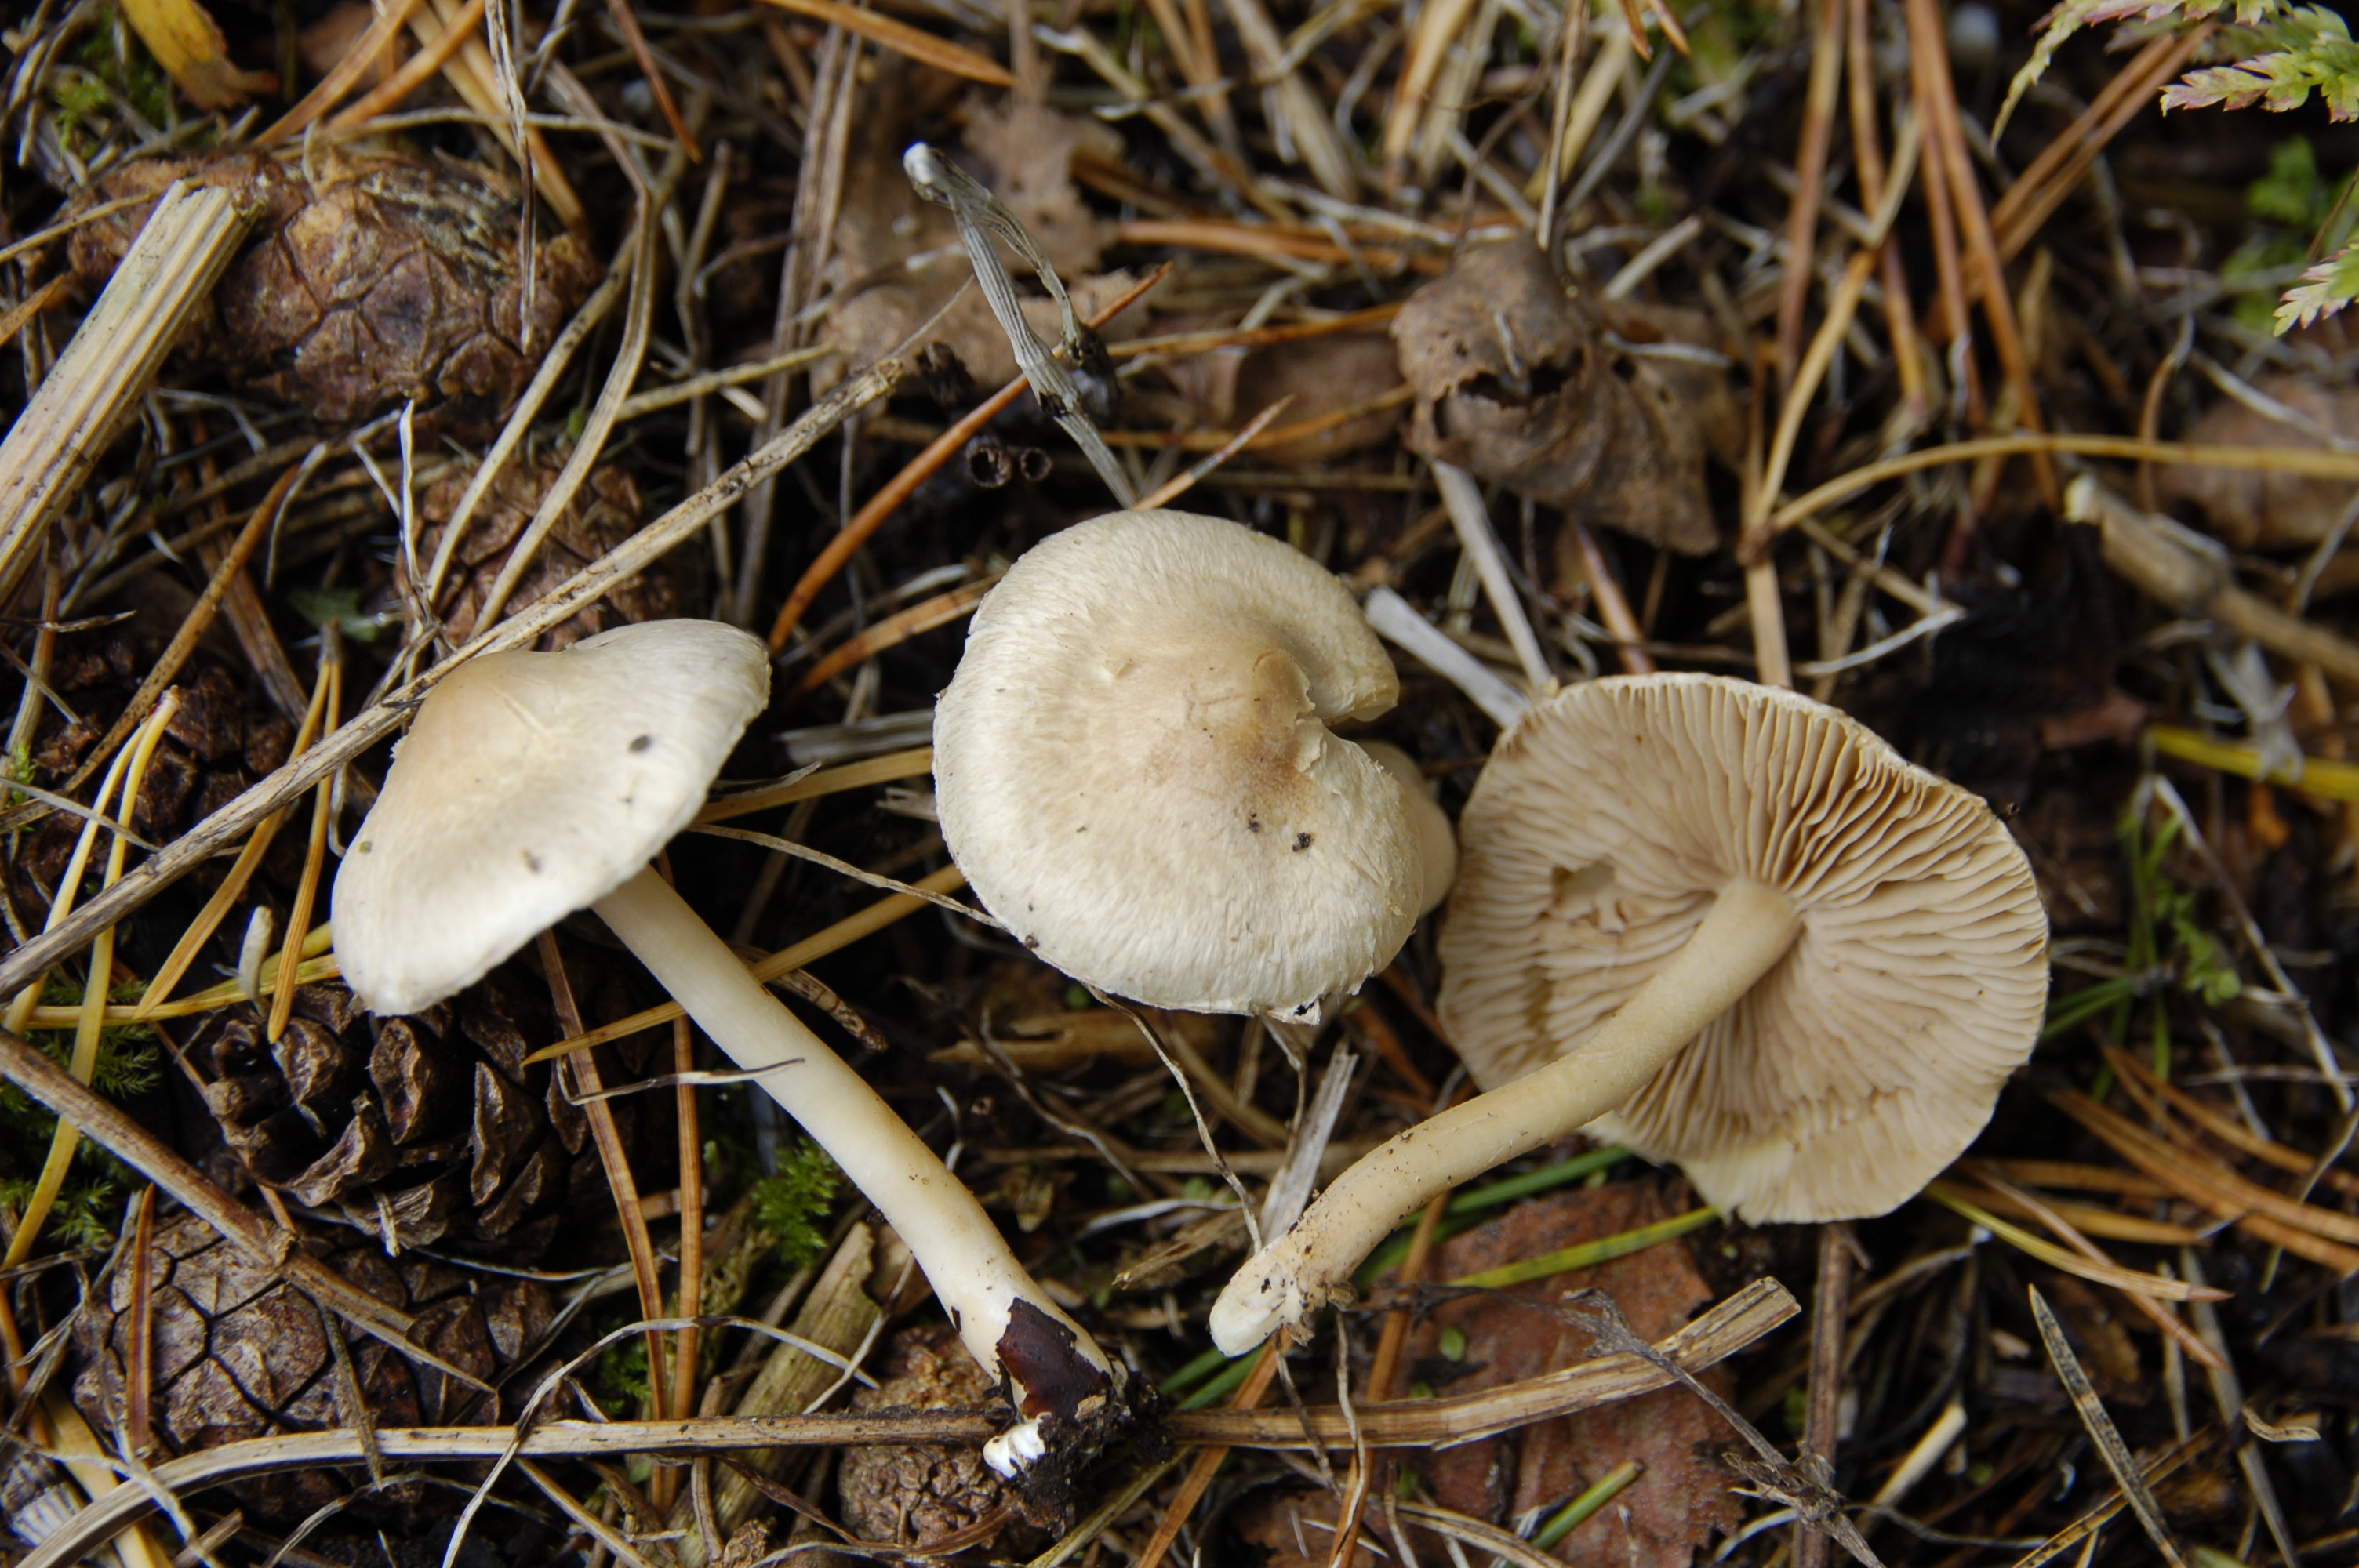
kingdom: Fungi
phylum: Basidiomycota
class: Agaricomycetes
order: Agaricales
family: Inocybaceae
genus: Inocybe
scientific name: Inocybe sindonia
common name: Beige fibrecap
